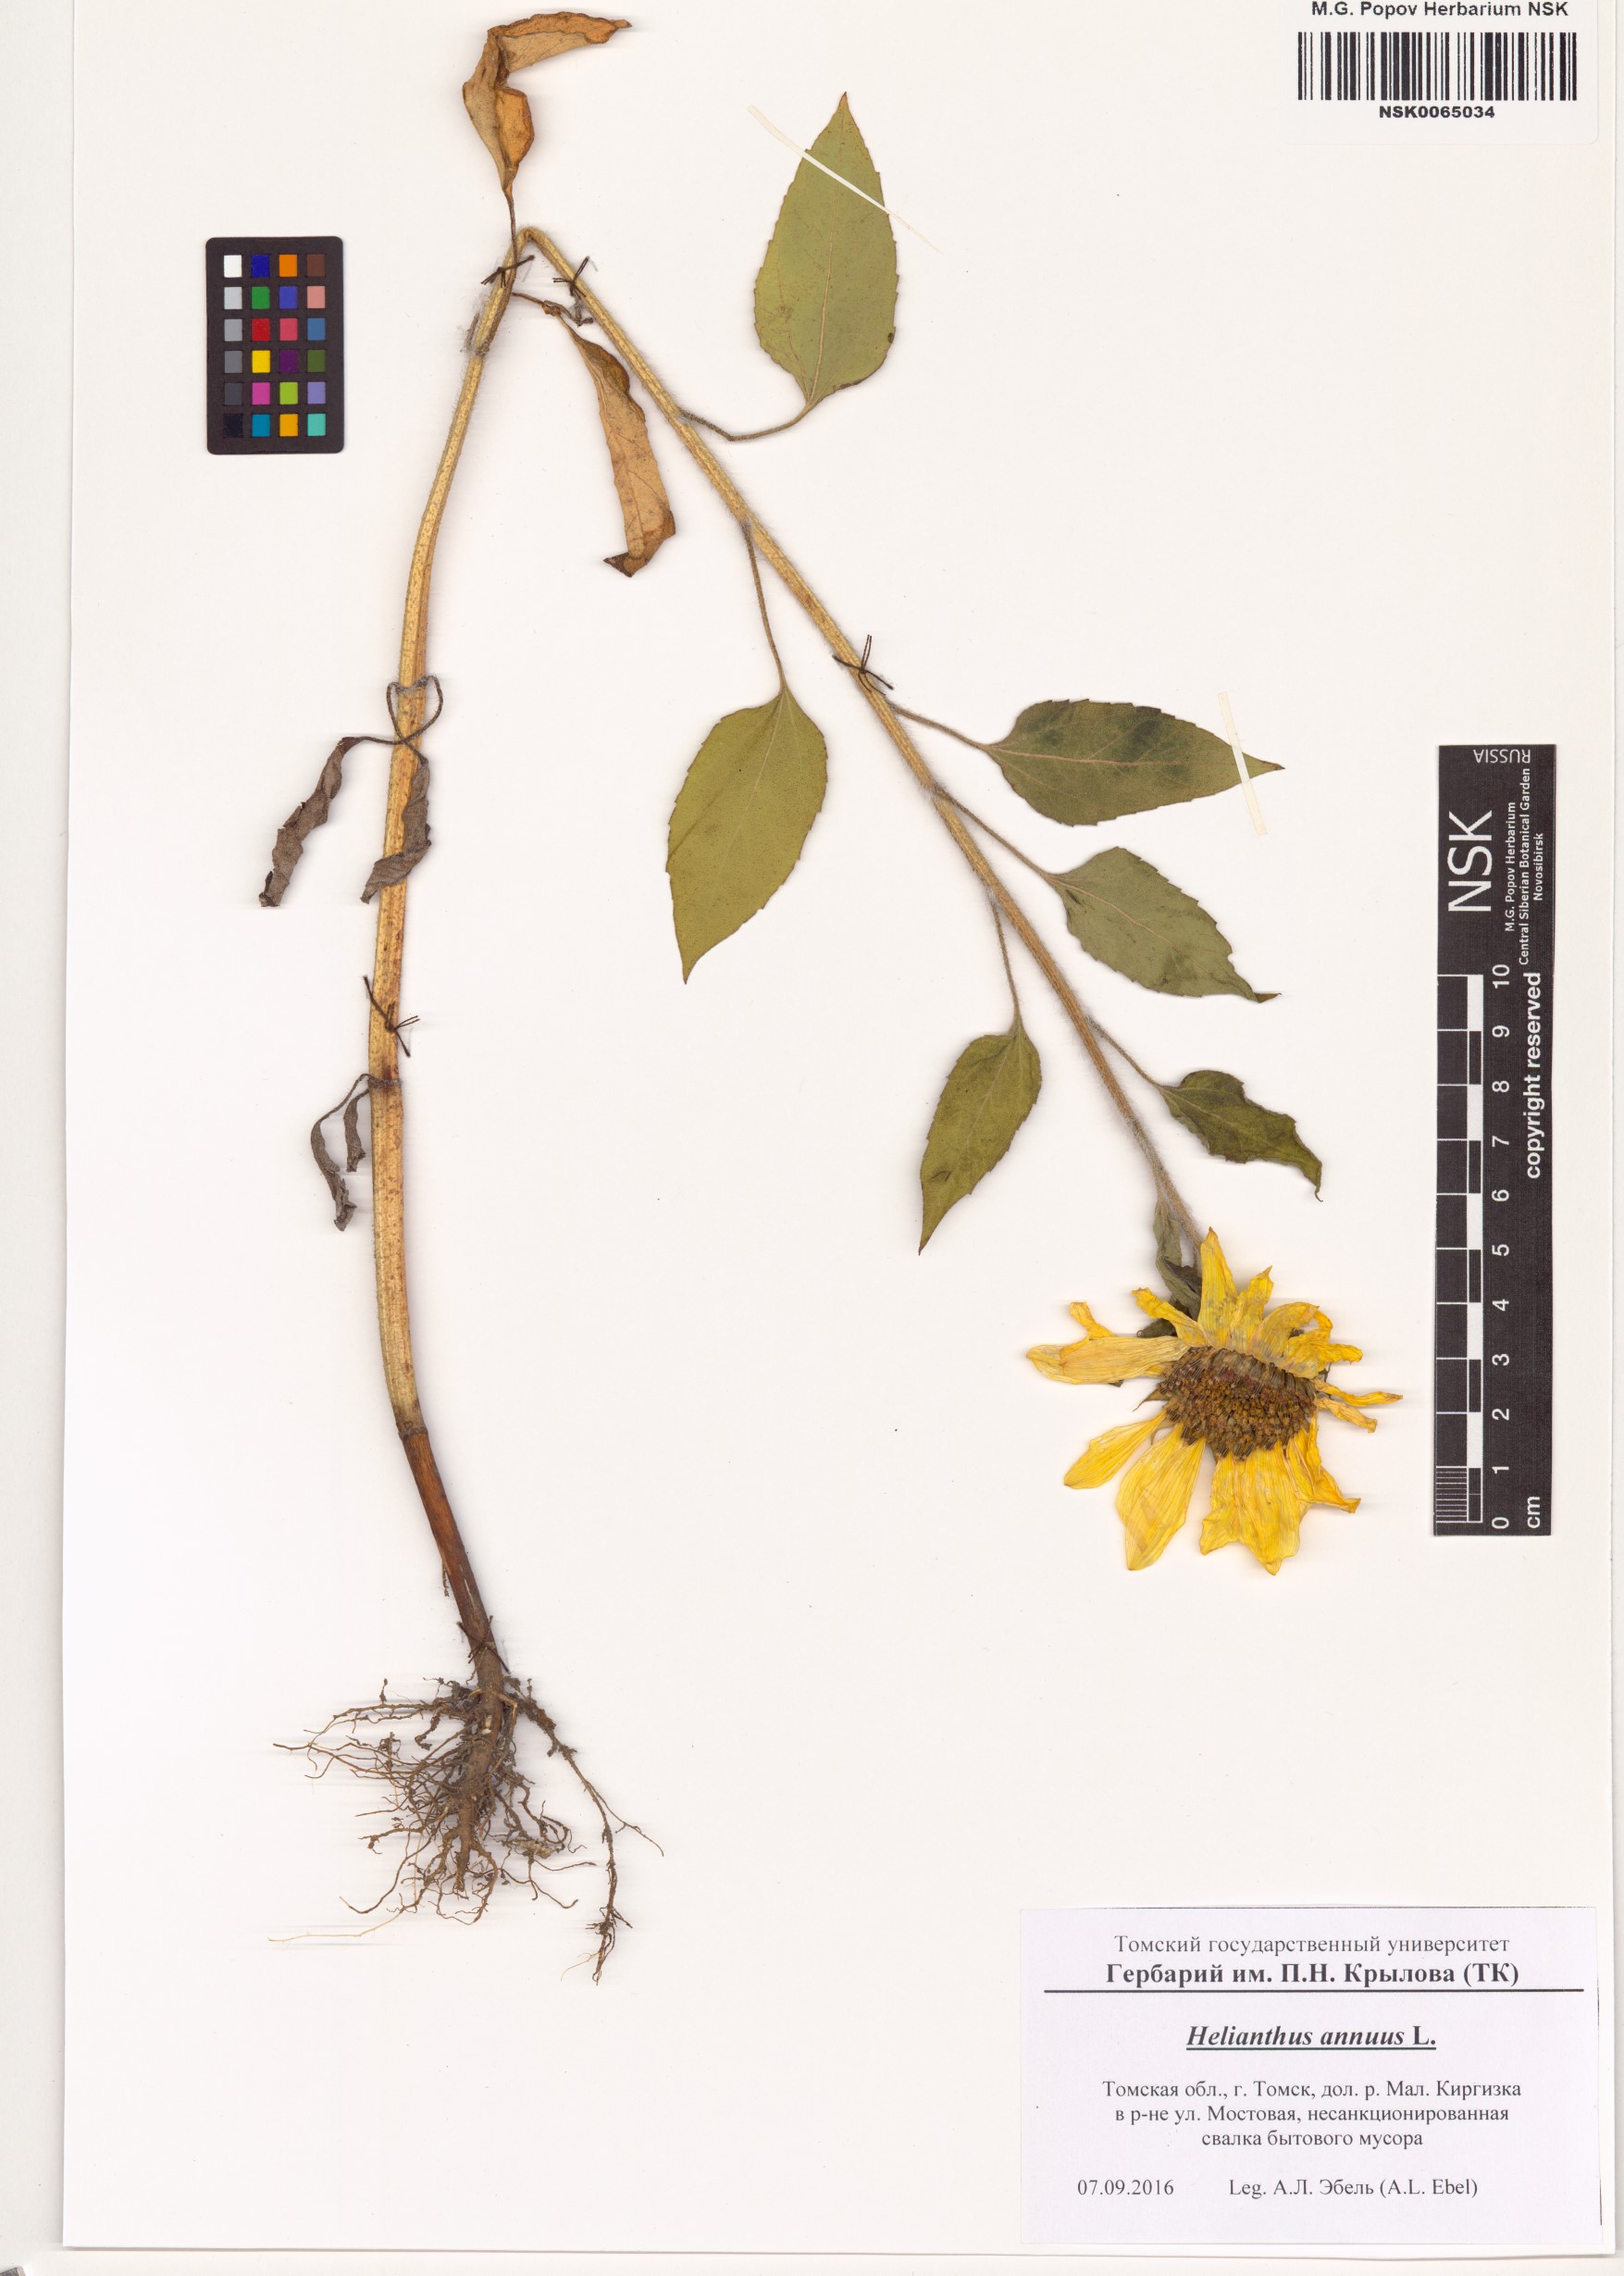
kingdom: Plantae
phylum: Tracheophyta
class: Magnoliopsida
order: Asterales
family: Asteraceae
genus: Helianthus
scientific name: Helianthus annuus
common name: Sunflower
